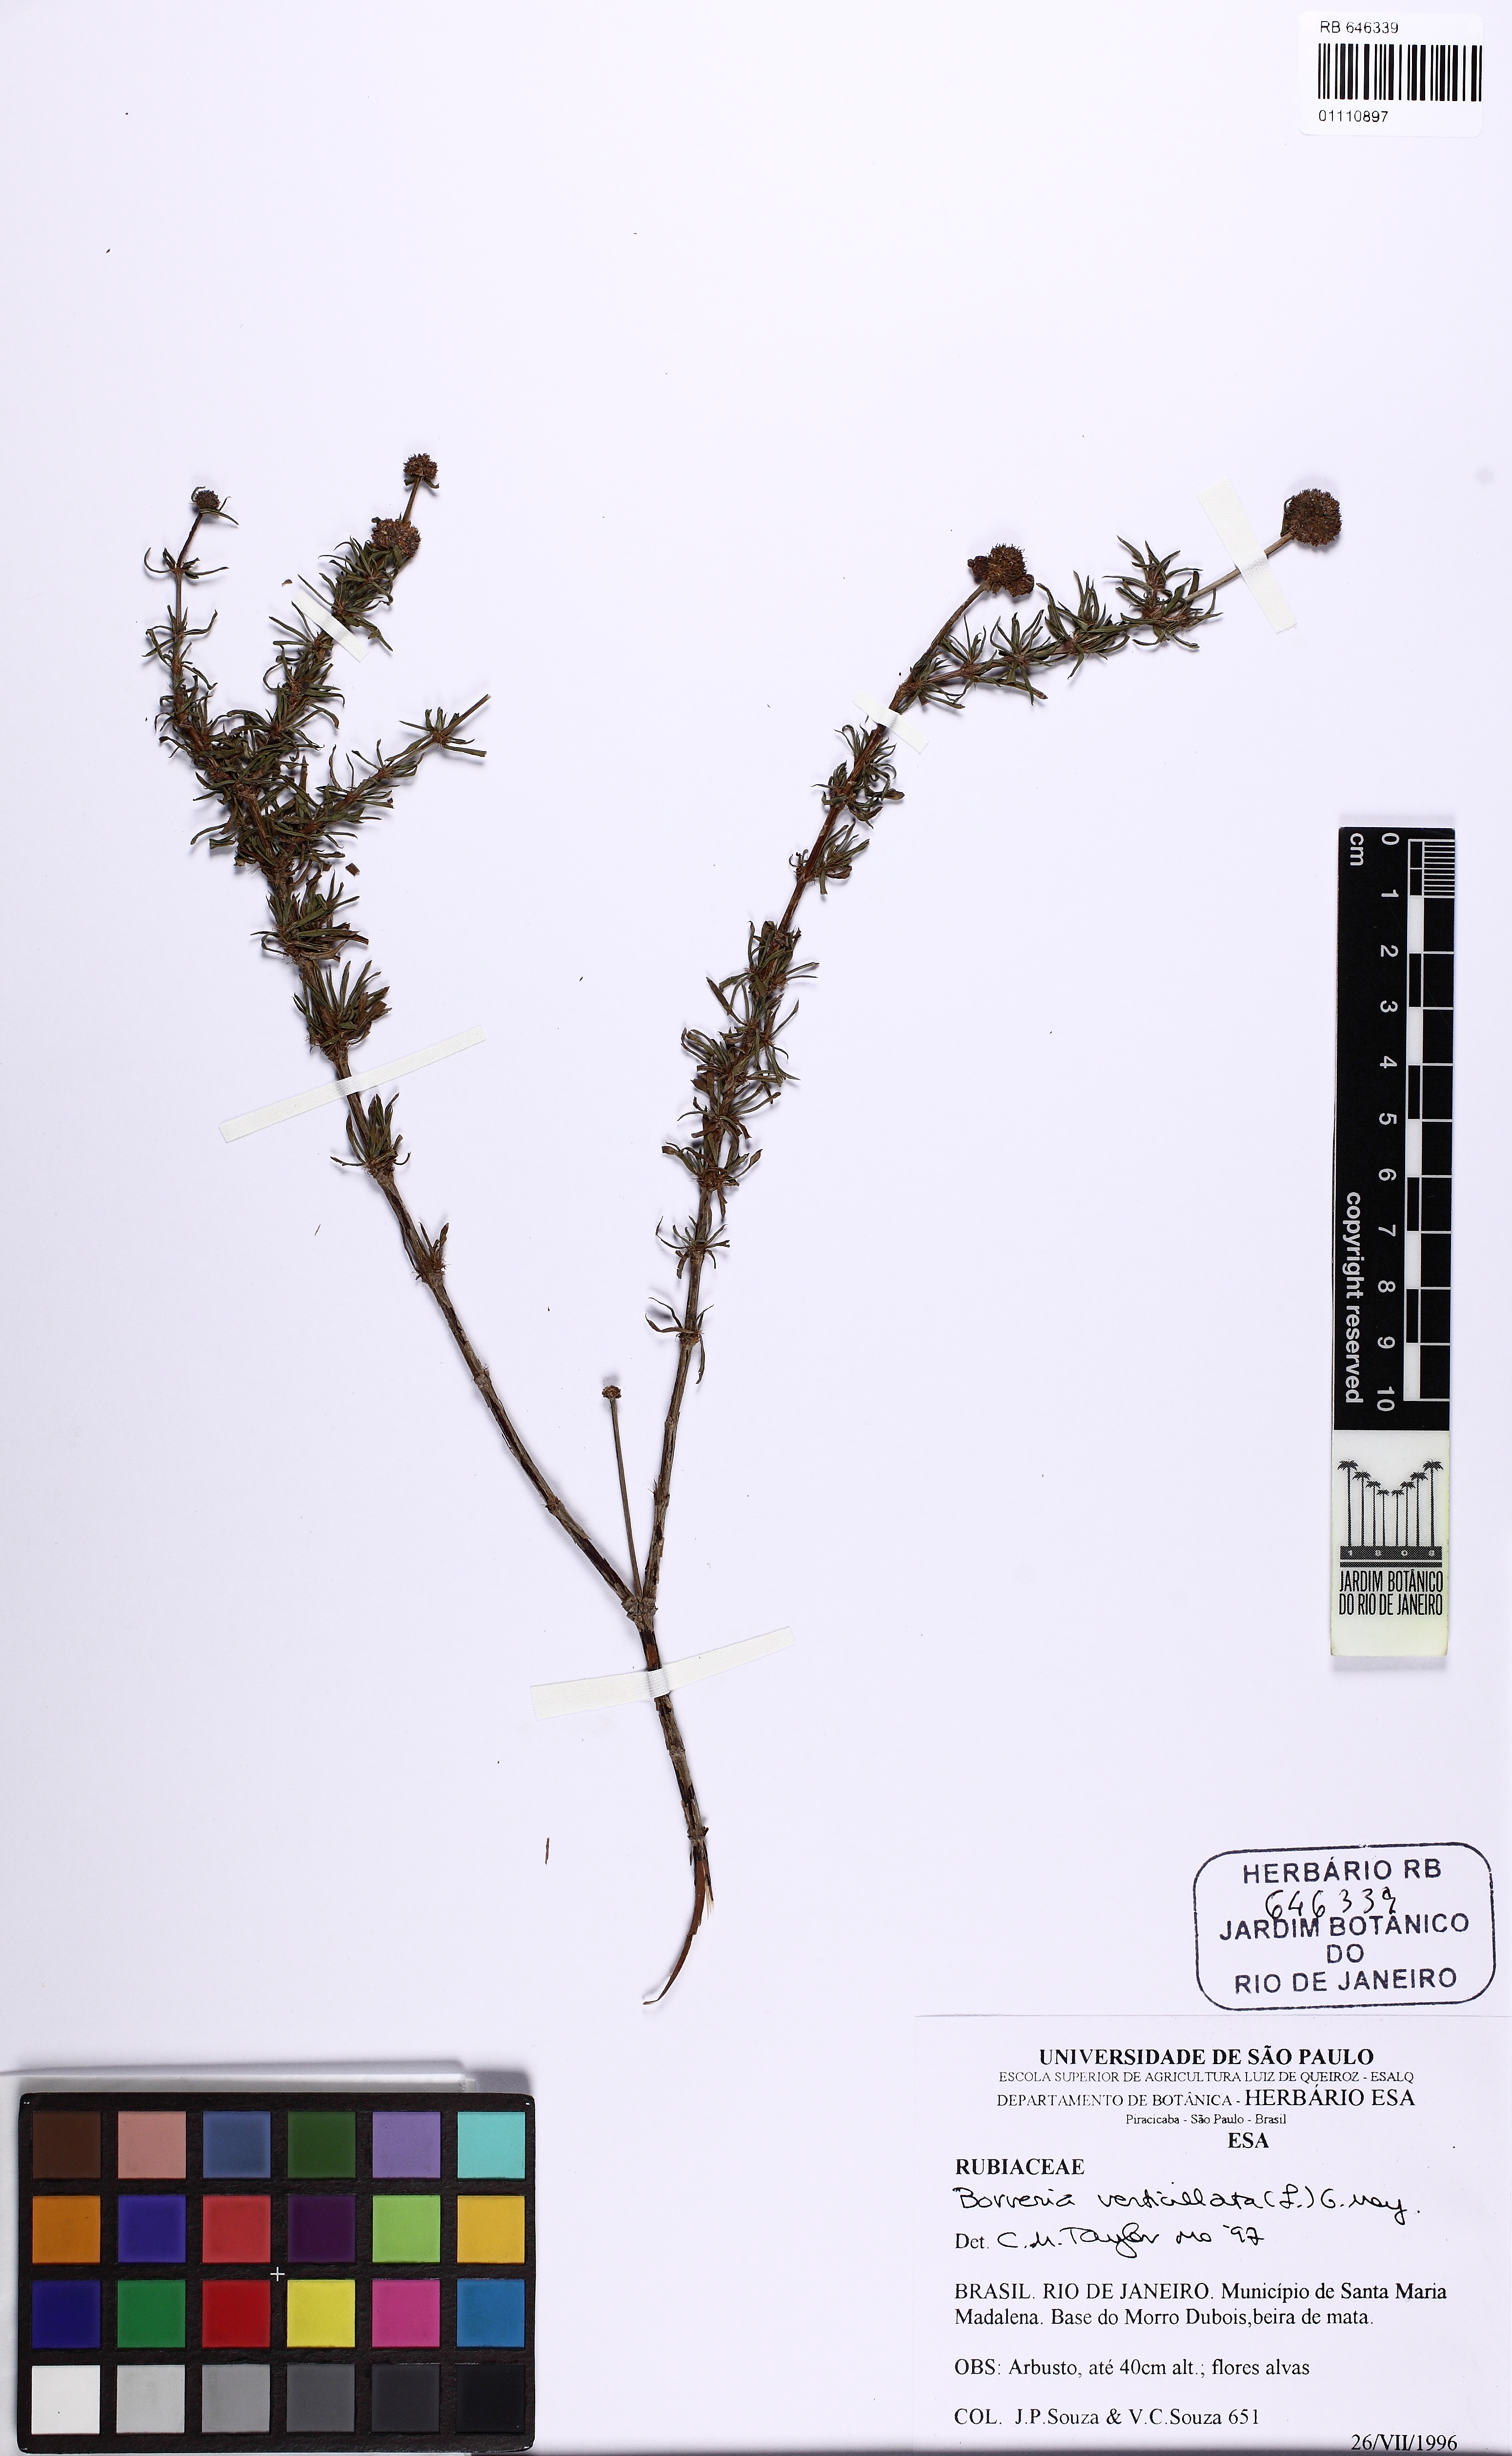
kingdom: Plantae
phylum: Tracheophyta
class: Magnoliopsida
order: Gentianales
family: Rubiaceae
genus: Spermacoce
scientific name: Spermacoce verticillata
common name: Shrubby false buttonweed
